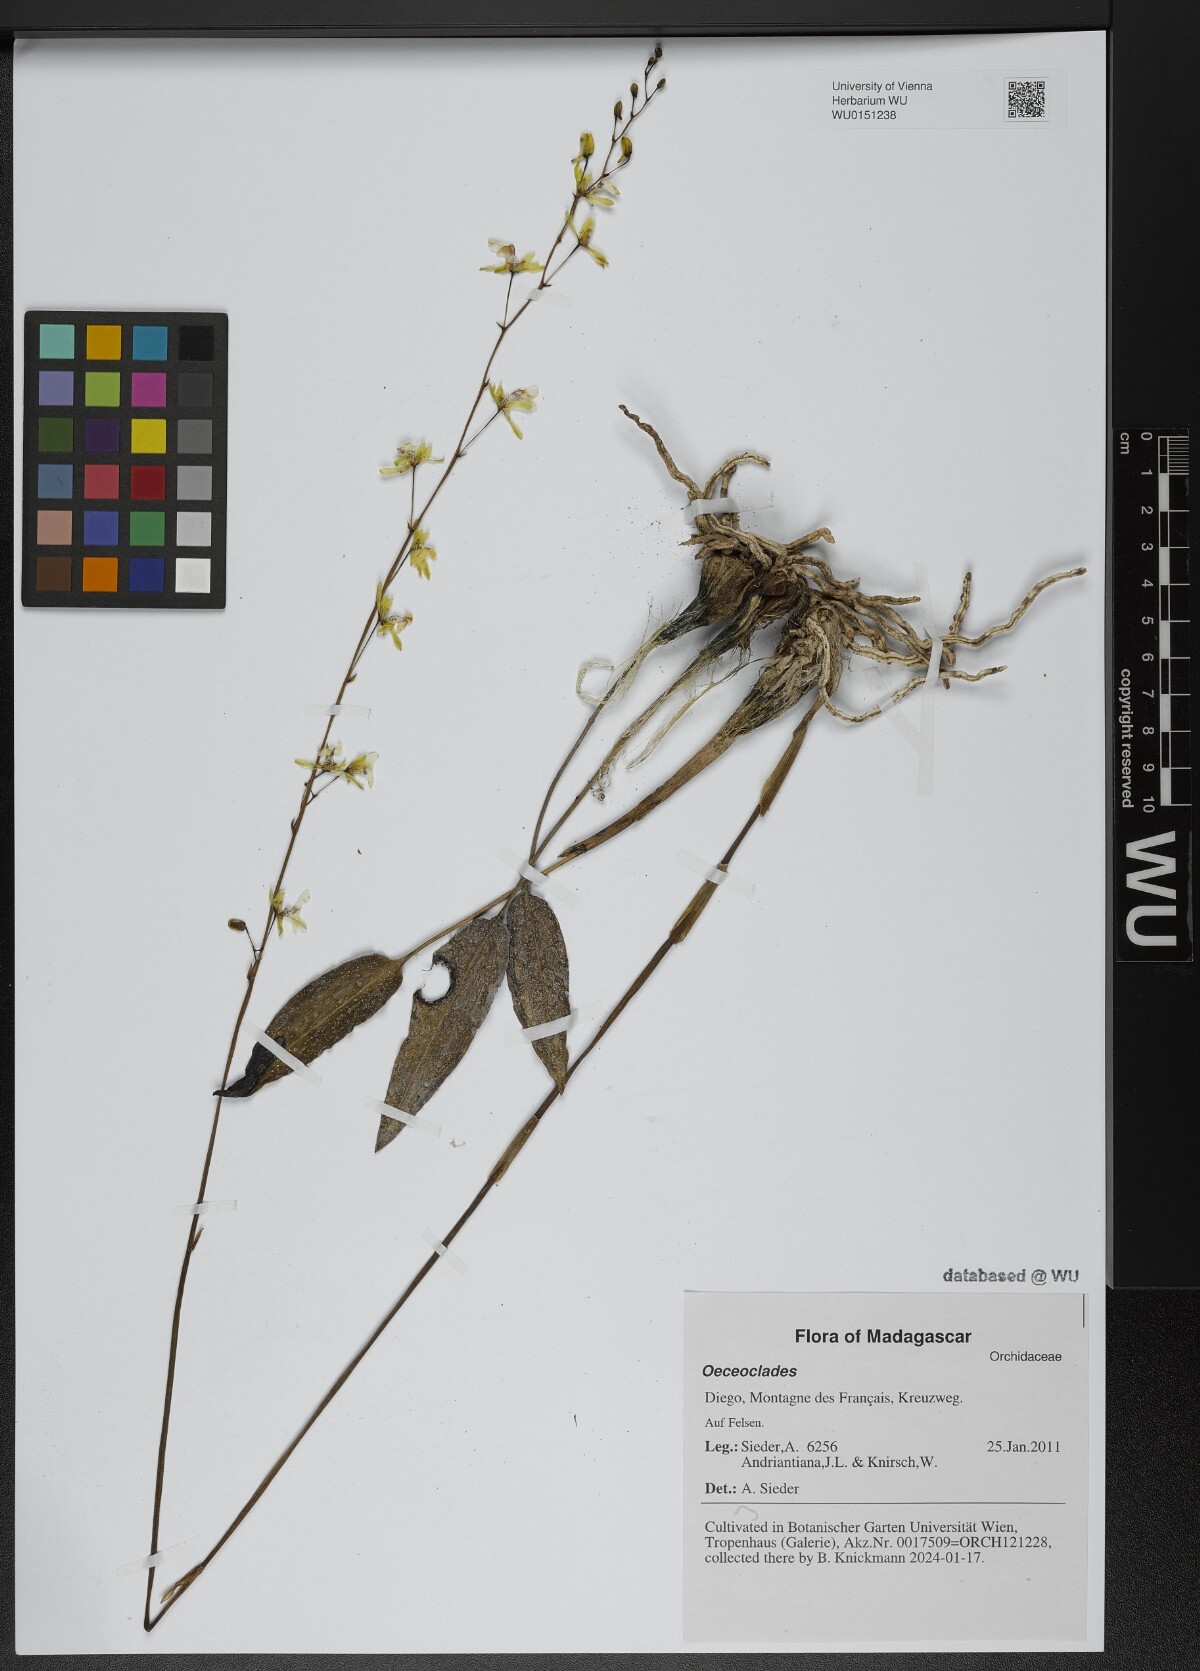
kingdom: Plantae
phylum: Tracheophyta
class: Liliopsida
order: Asparagales
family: Orchidaceae
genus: Eulophia
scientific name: Eulophia
